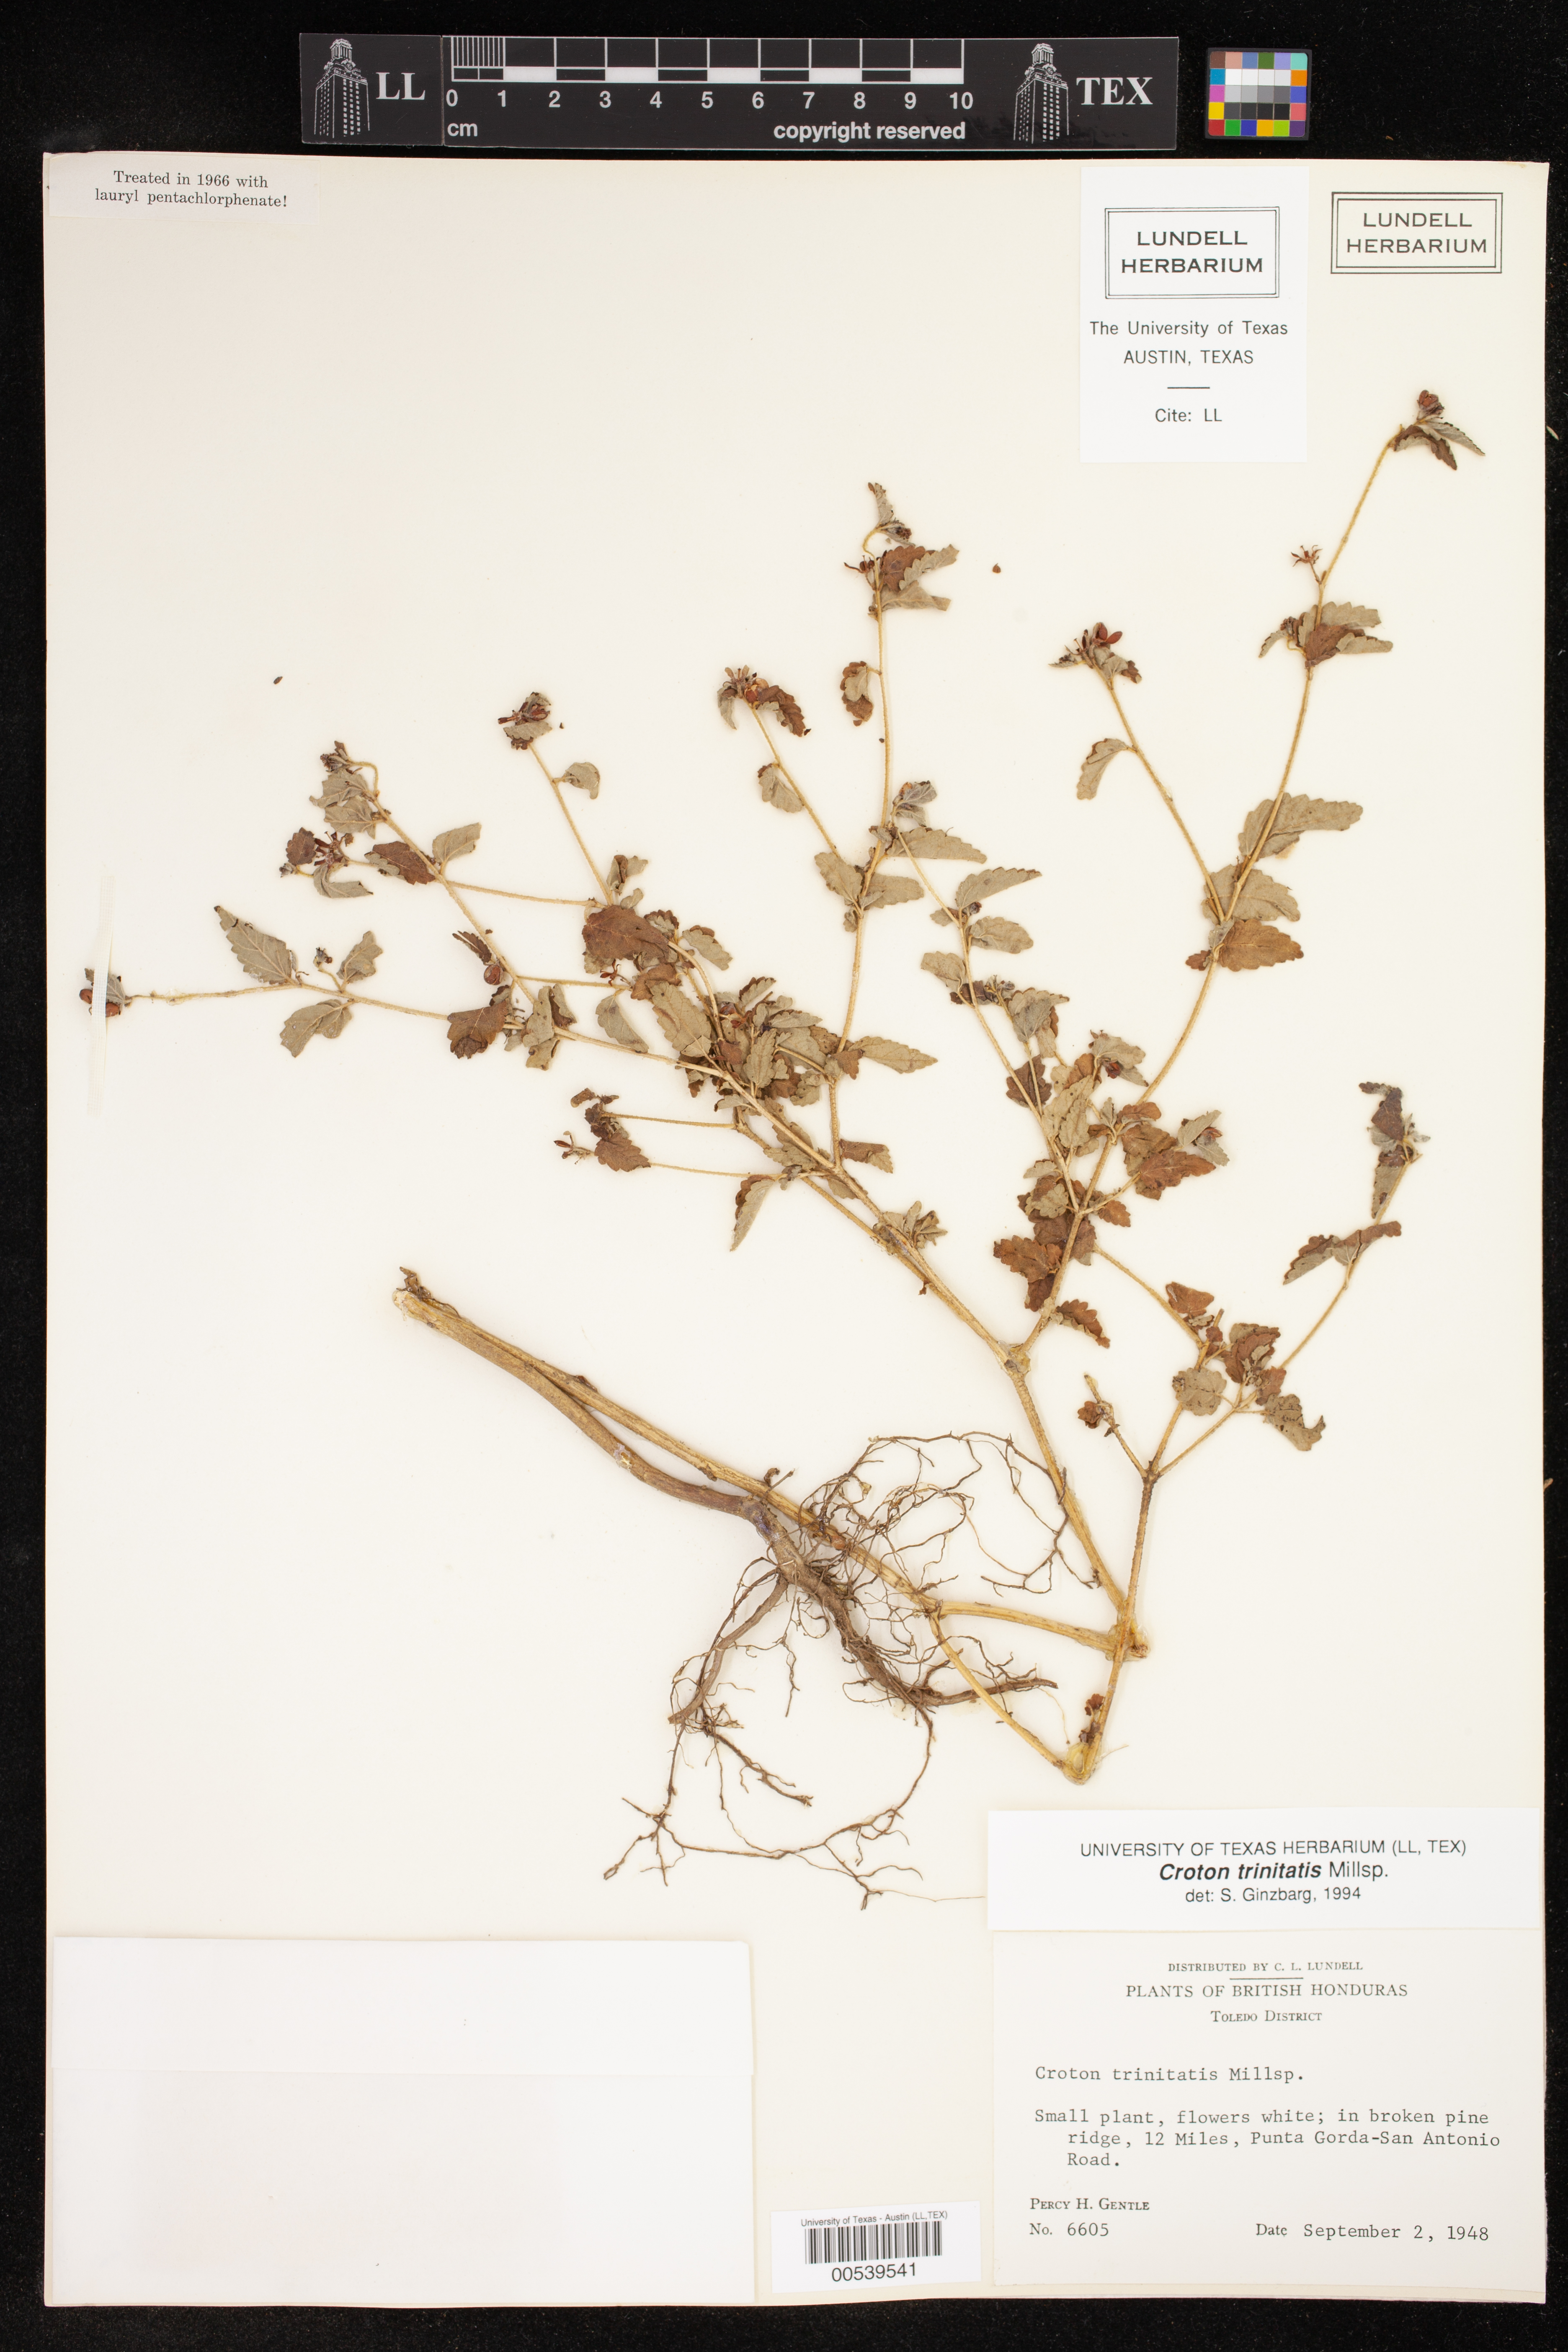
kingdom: Plantae
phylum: Tracheophyta
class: Magnoliopsida
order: Malpighiales
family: Euphorbiaceae
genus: Croton
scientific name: Croton trinitatis
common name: Roadside croton
